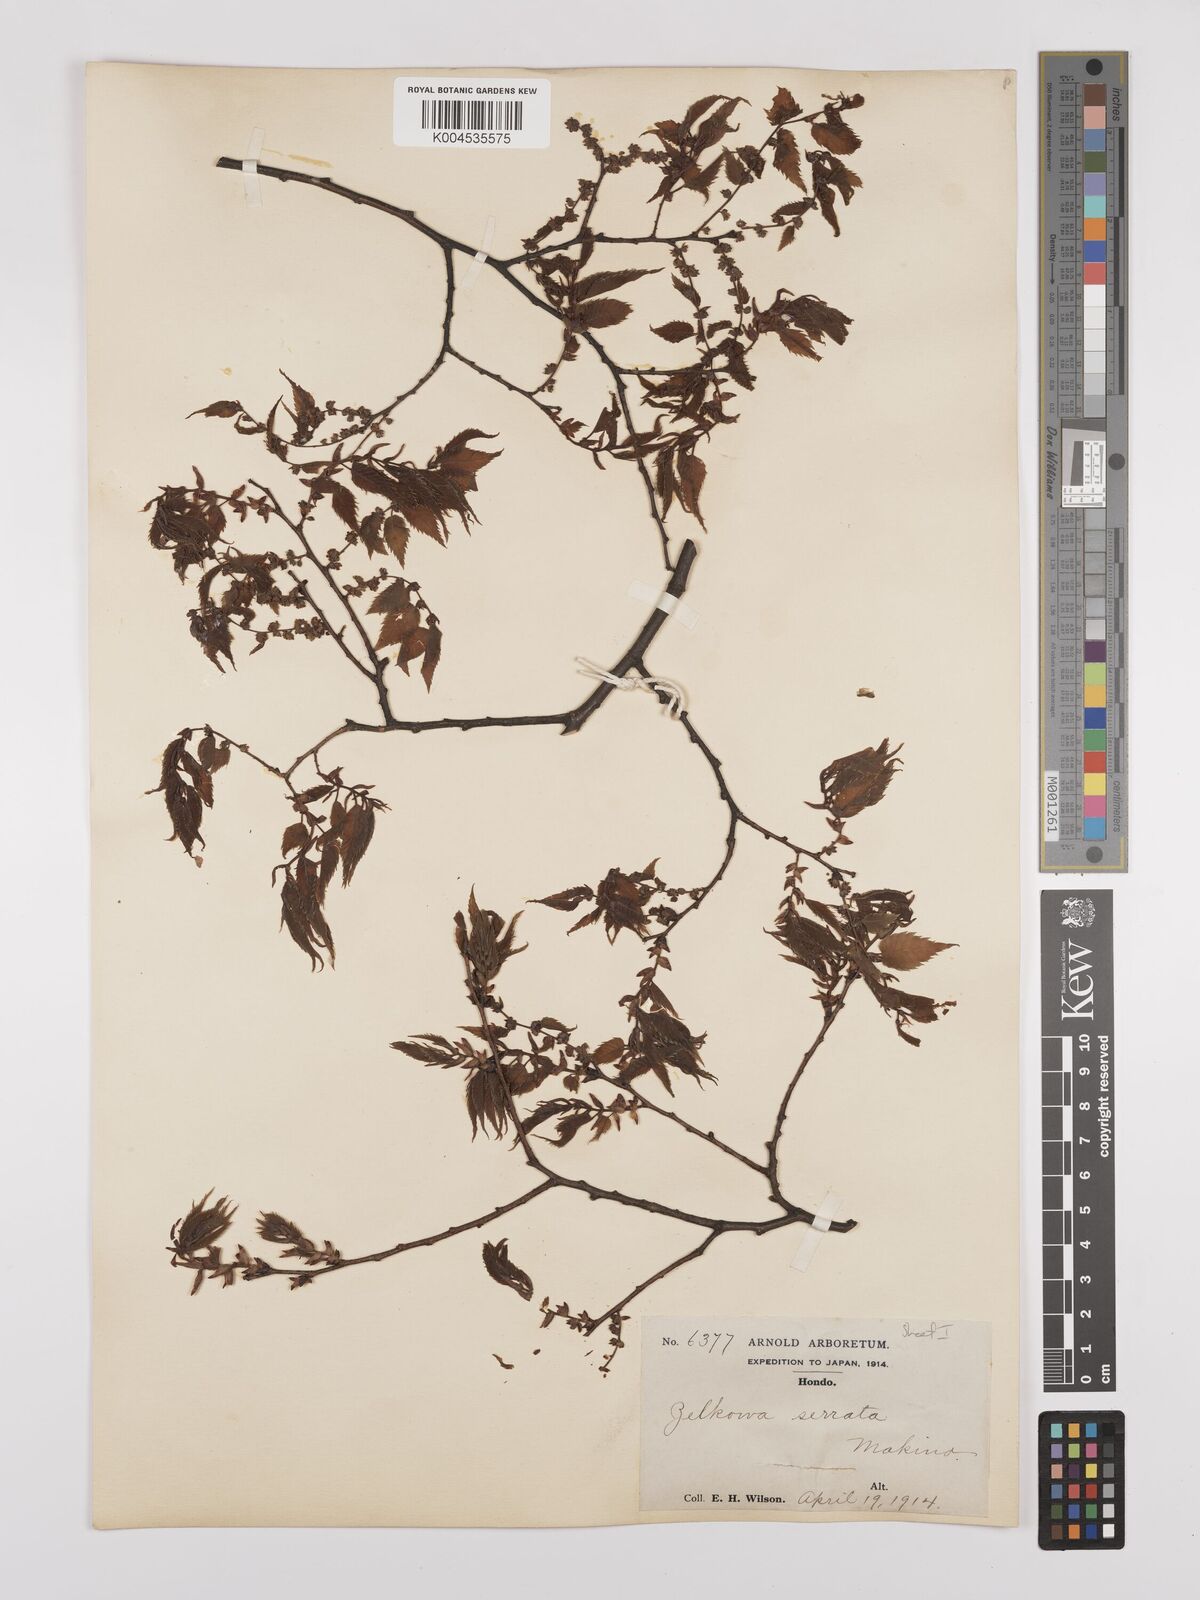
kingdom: Plantae
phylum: Tracheophyta
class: Magnoliopsida
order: Rosales
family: Ulmaceae
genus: Zelkova
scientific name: Zelkova
